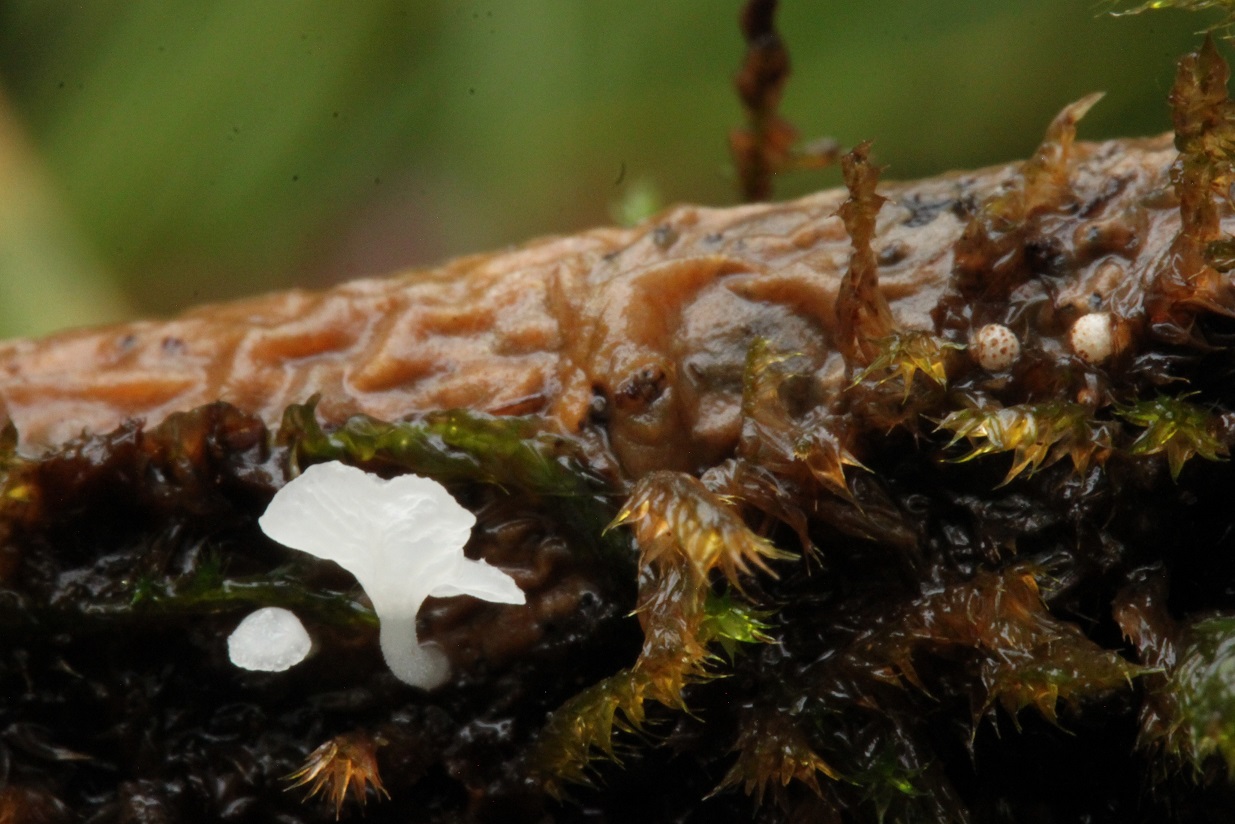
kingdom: Fungi
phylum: Basidiomycota
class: Agaricomycetes
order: Agaricales
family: Mycenaceae
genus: Hemimycena
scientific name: Hemimycena hirsuta
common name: håret huesvamp
